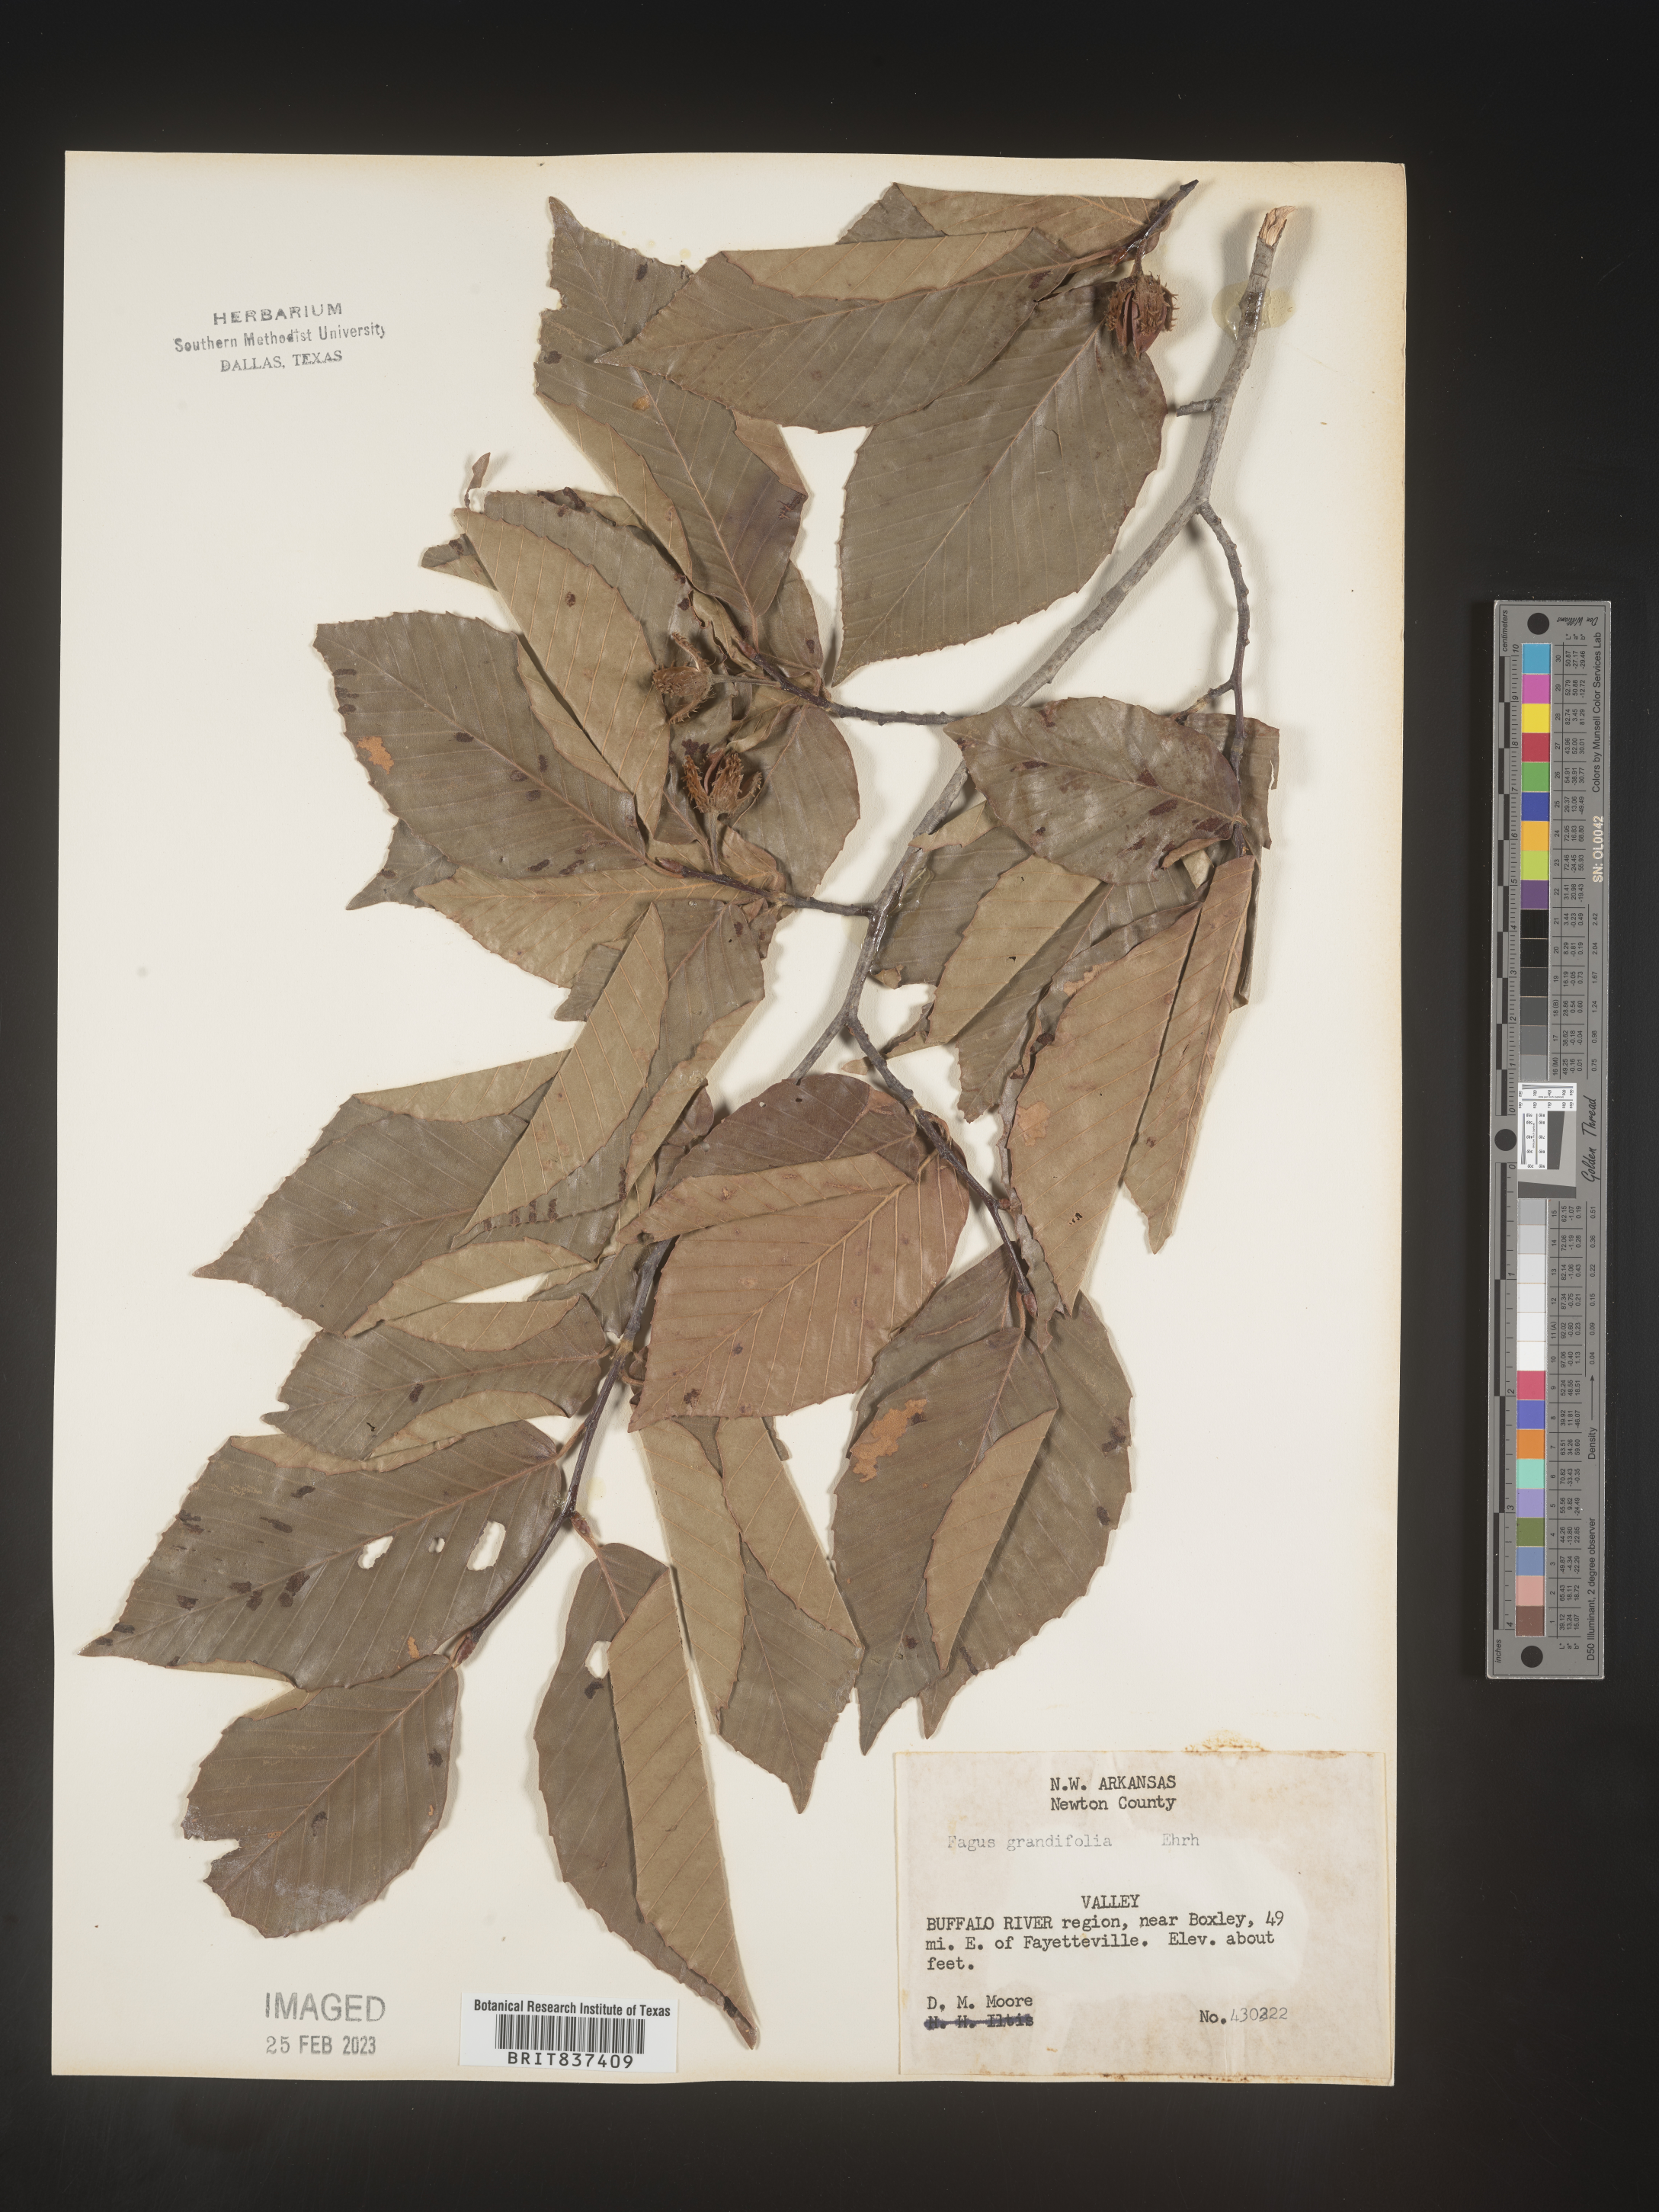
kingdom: Plantae
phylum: Tracheophyta
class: Magnoliopsida
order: Fagales
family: Fagaceae
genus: Fagus
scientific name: Fagus grandifolia
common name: American beech
